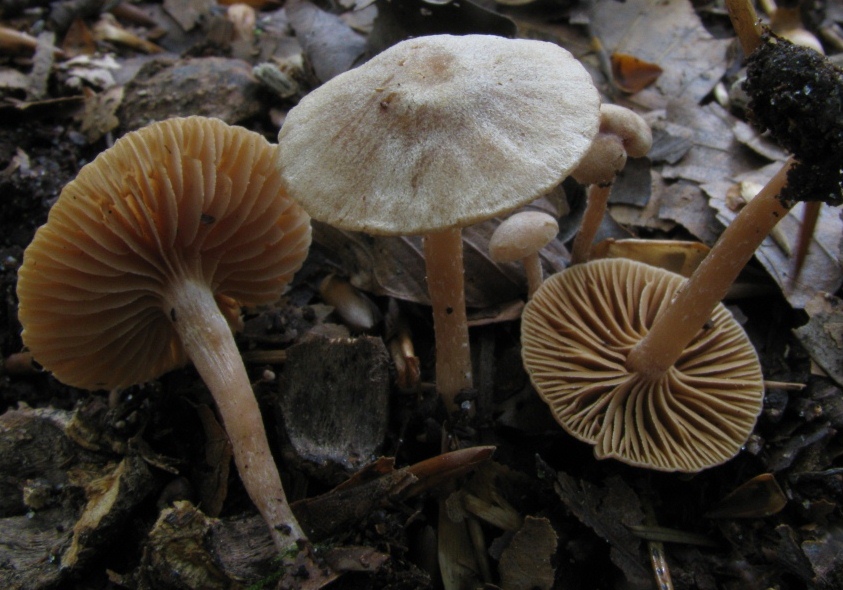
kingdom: Fungi
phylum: Basidiomycota
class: Agaricomycetes
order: Agaricales
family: Tubariaceae
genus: Tubaria
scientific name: Tubaria conspersa
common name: bleg fnughat
